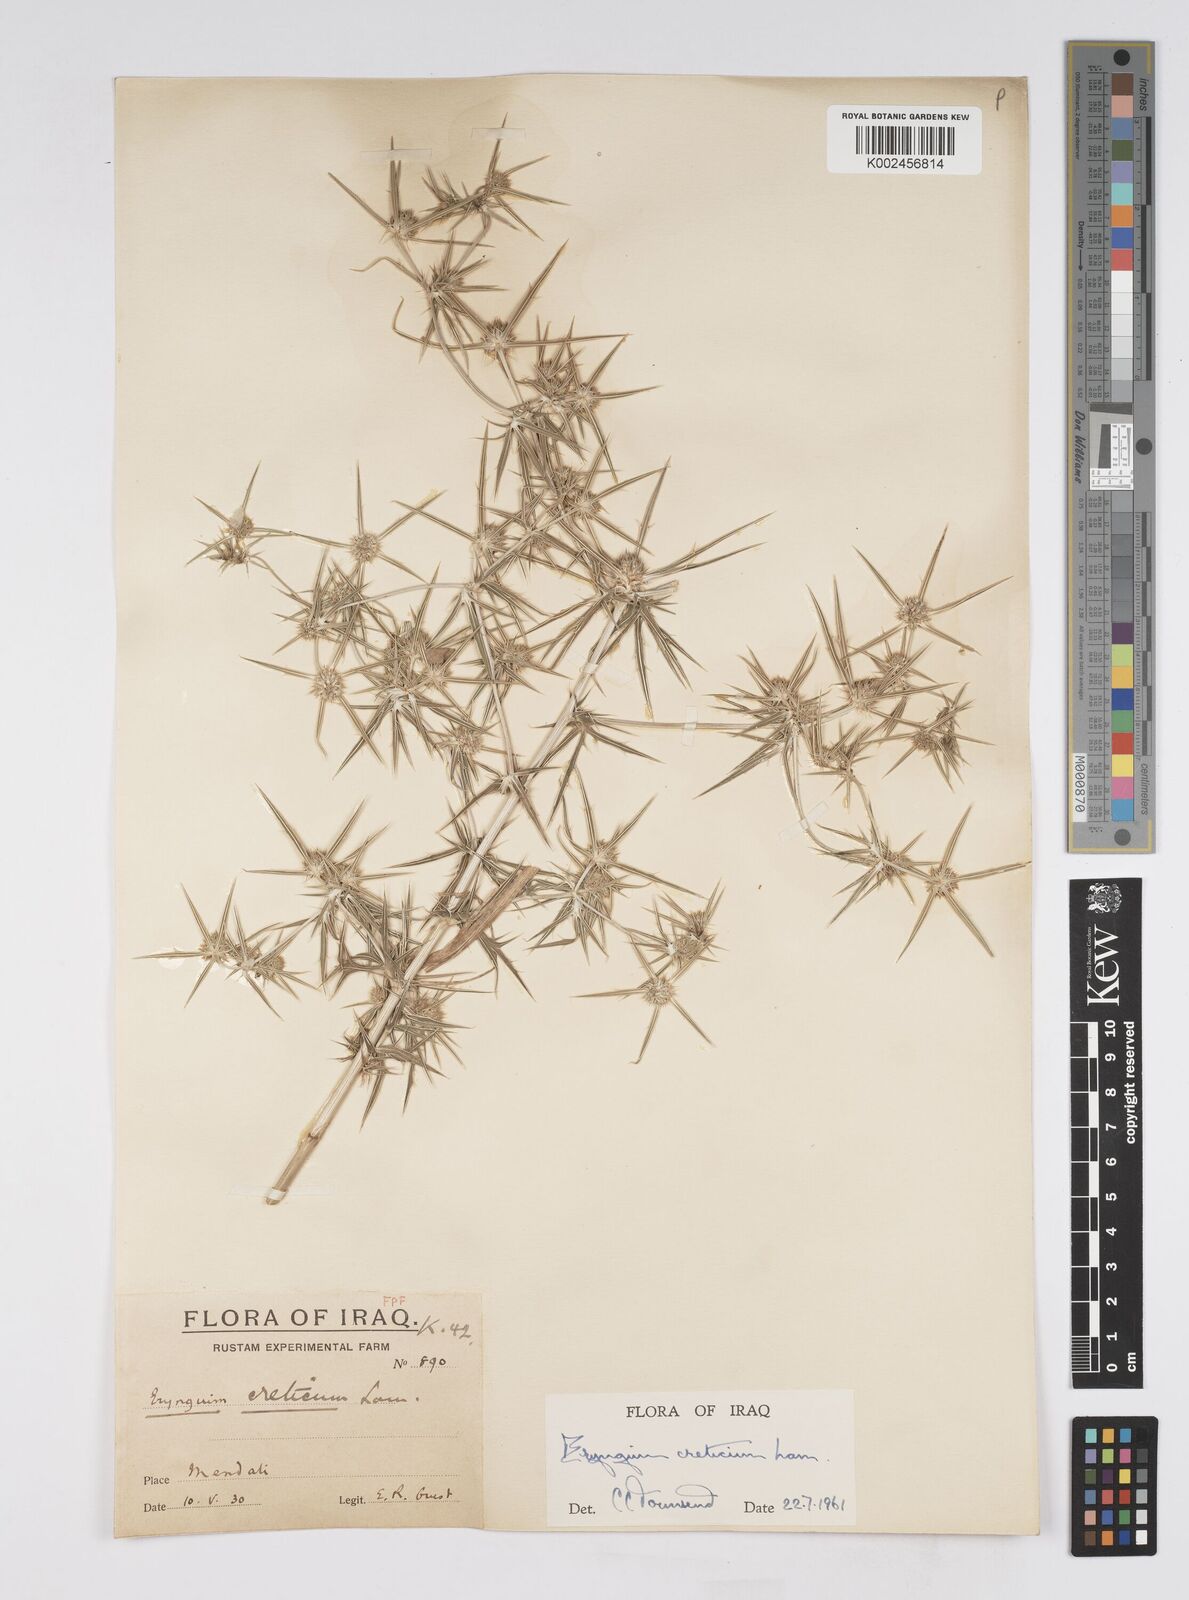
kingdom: Plantae
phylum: Tracheophyta
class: Magnoliopsida
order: Apiales
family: Apiaceae
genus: Eryngium
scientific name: Eryngium creticum
